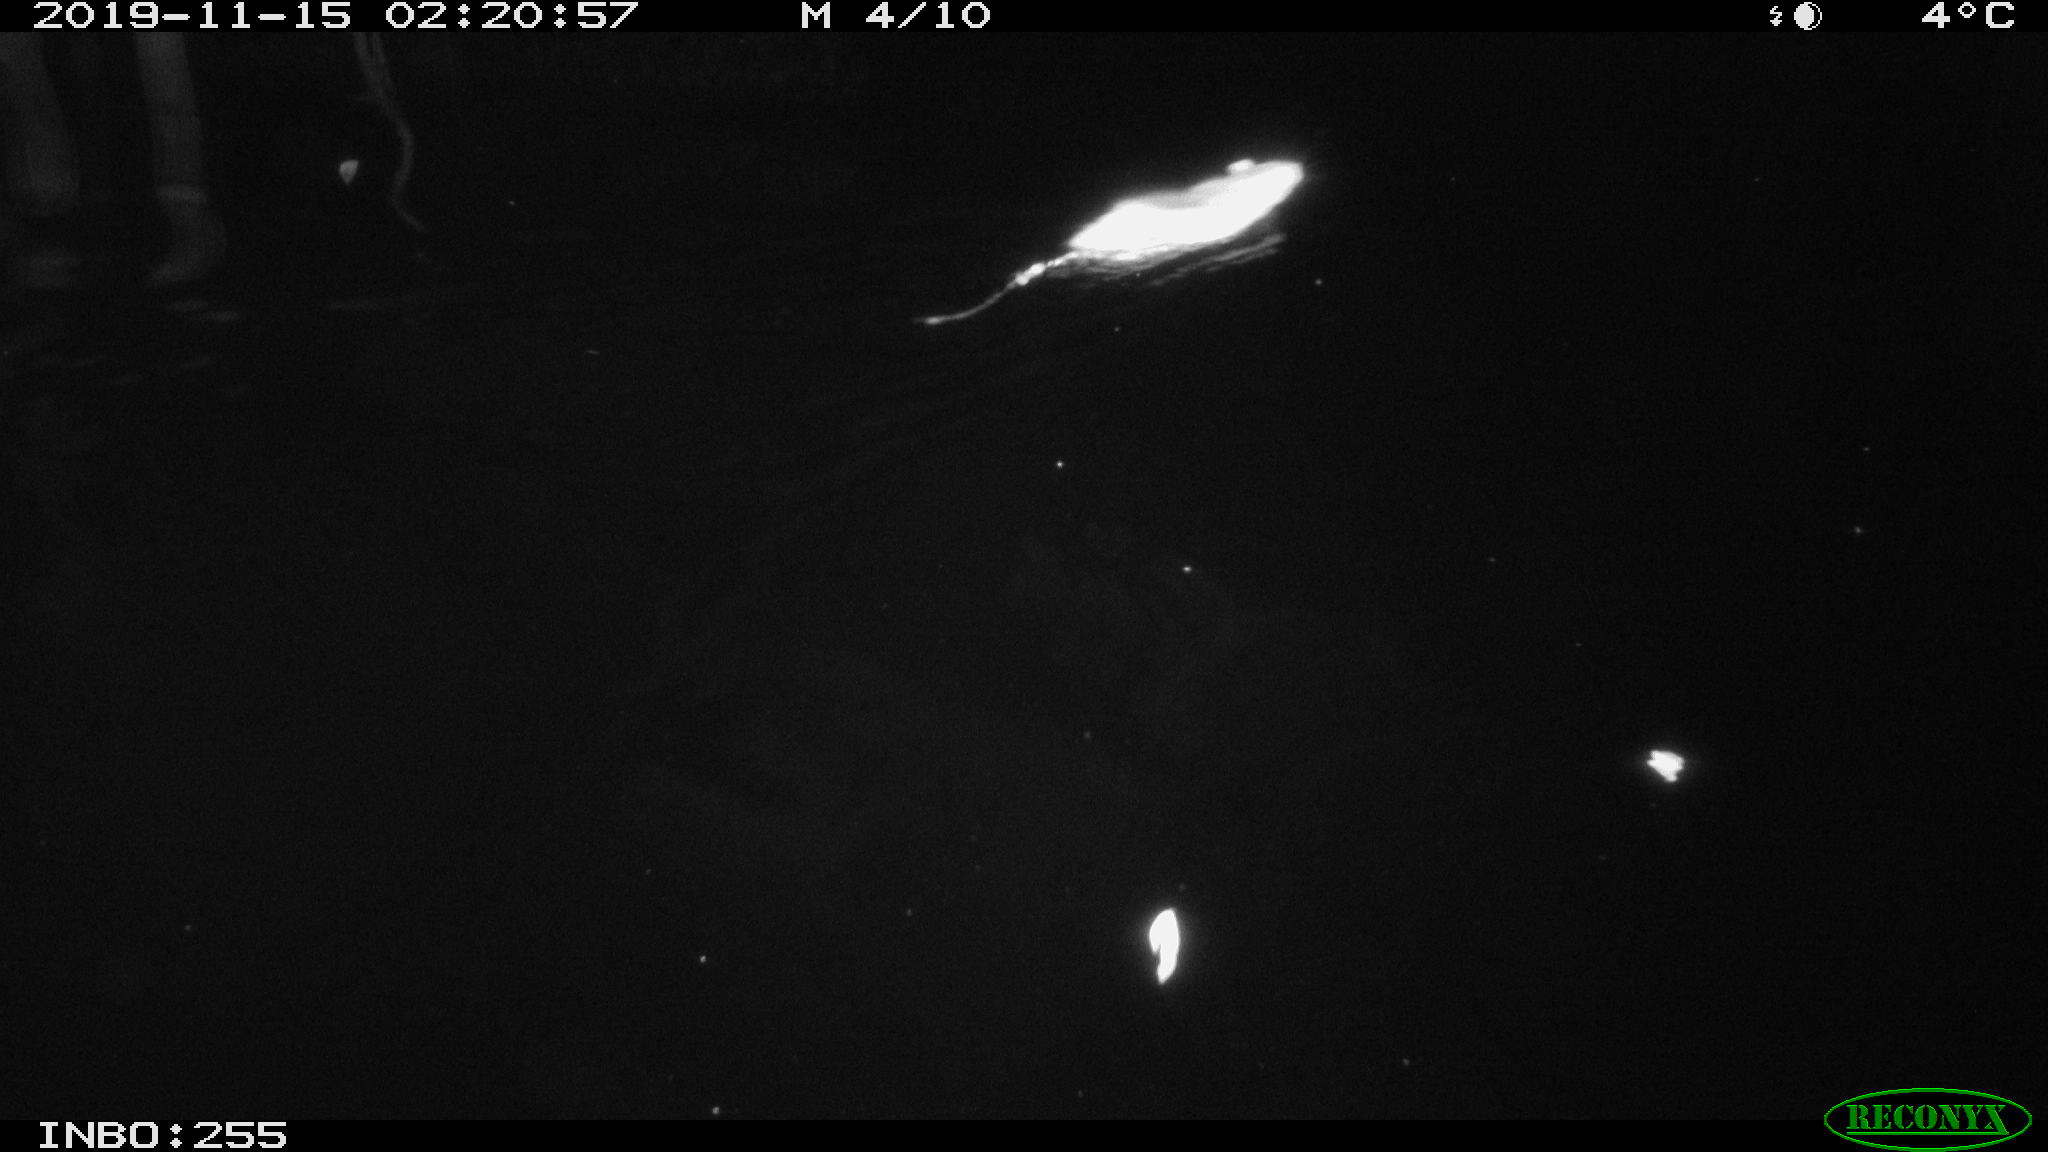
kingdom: Animalia
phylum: Chordata
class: Mammalia
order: Rodentia
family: Muridae
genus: Rattus
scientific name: Rattus norvegicus
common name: Brown rat
